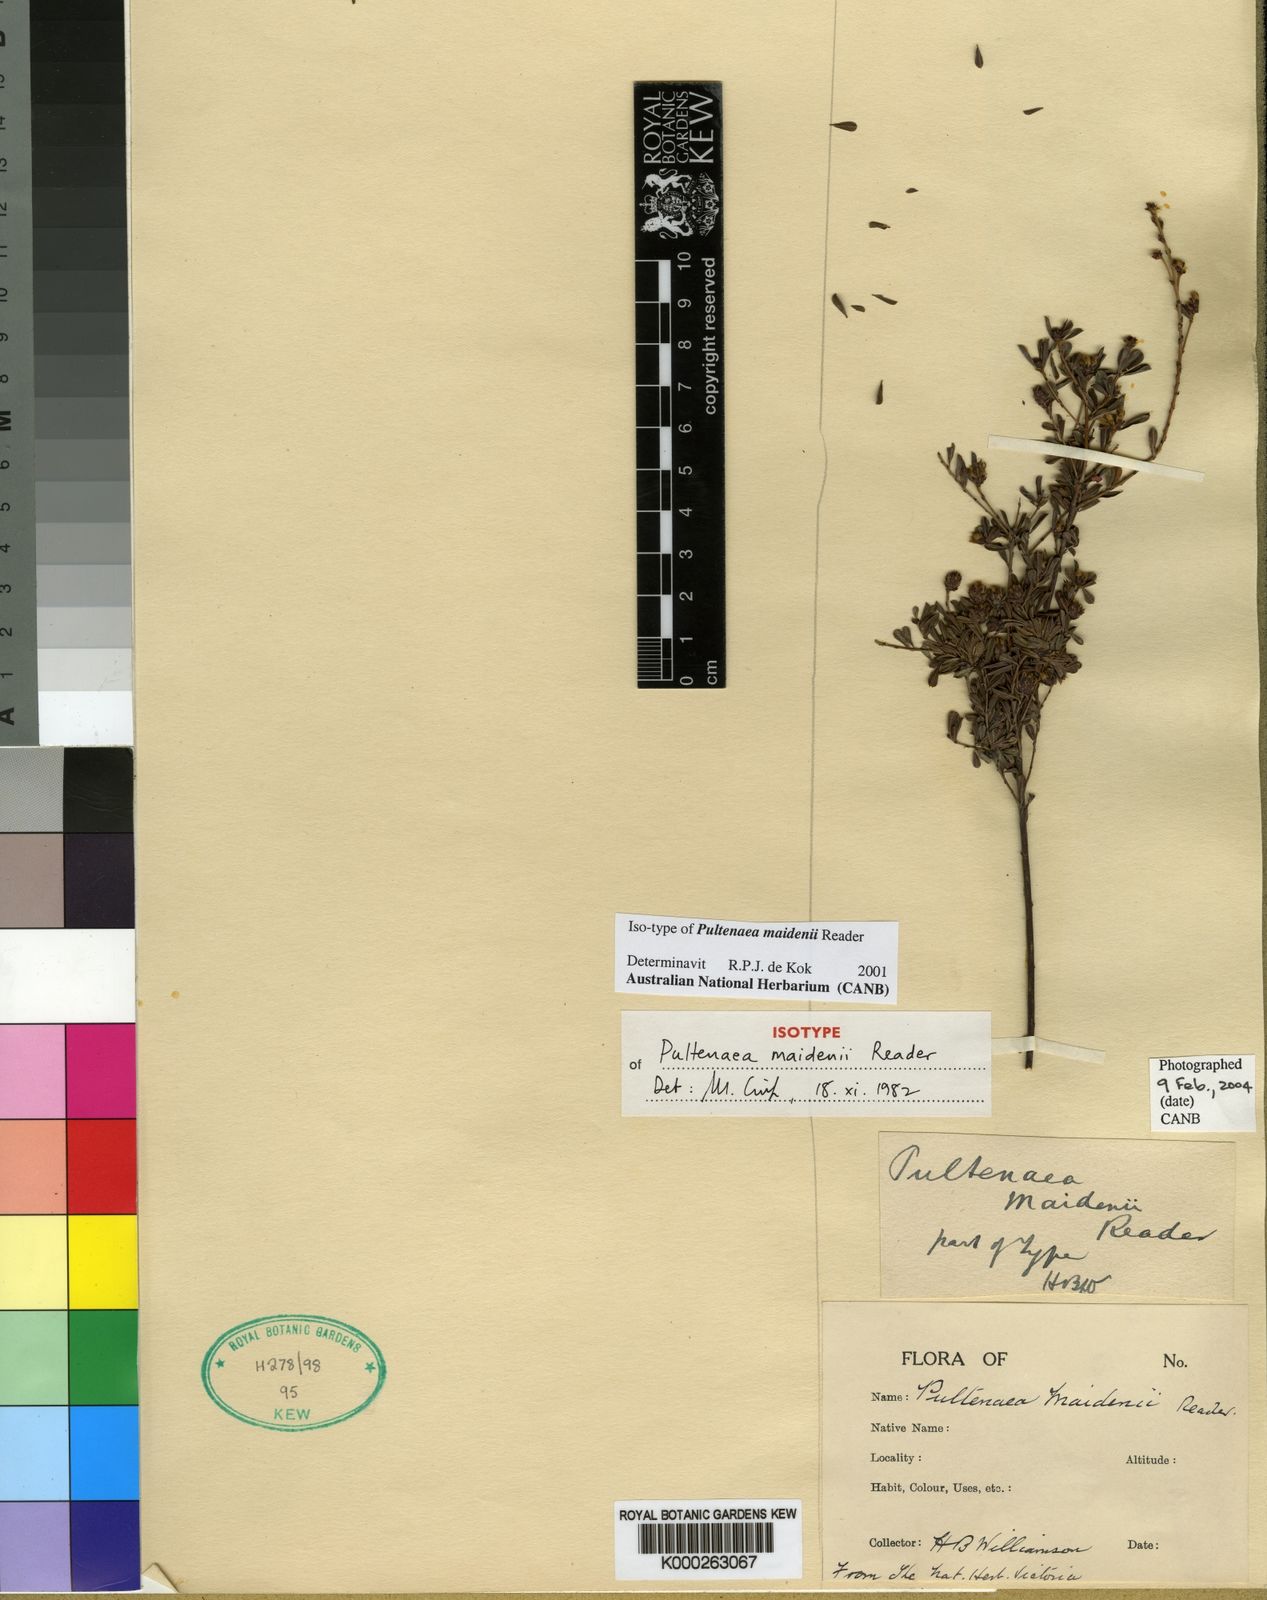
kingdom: Plantae
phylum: Tracheophyta
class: Magnoliopsida
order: Fabales
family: Fabaceae
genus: Pultenaea
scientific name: Pultenaea maidenii
